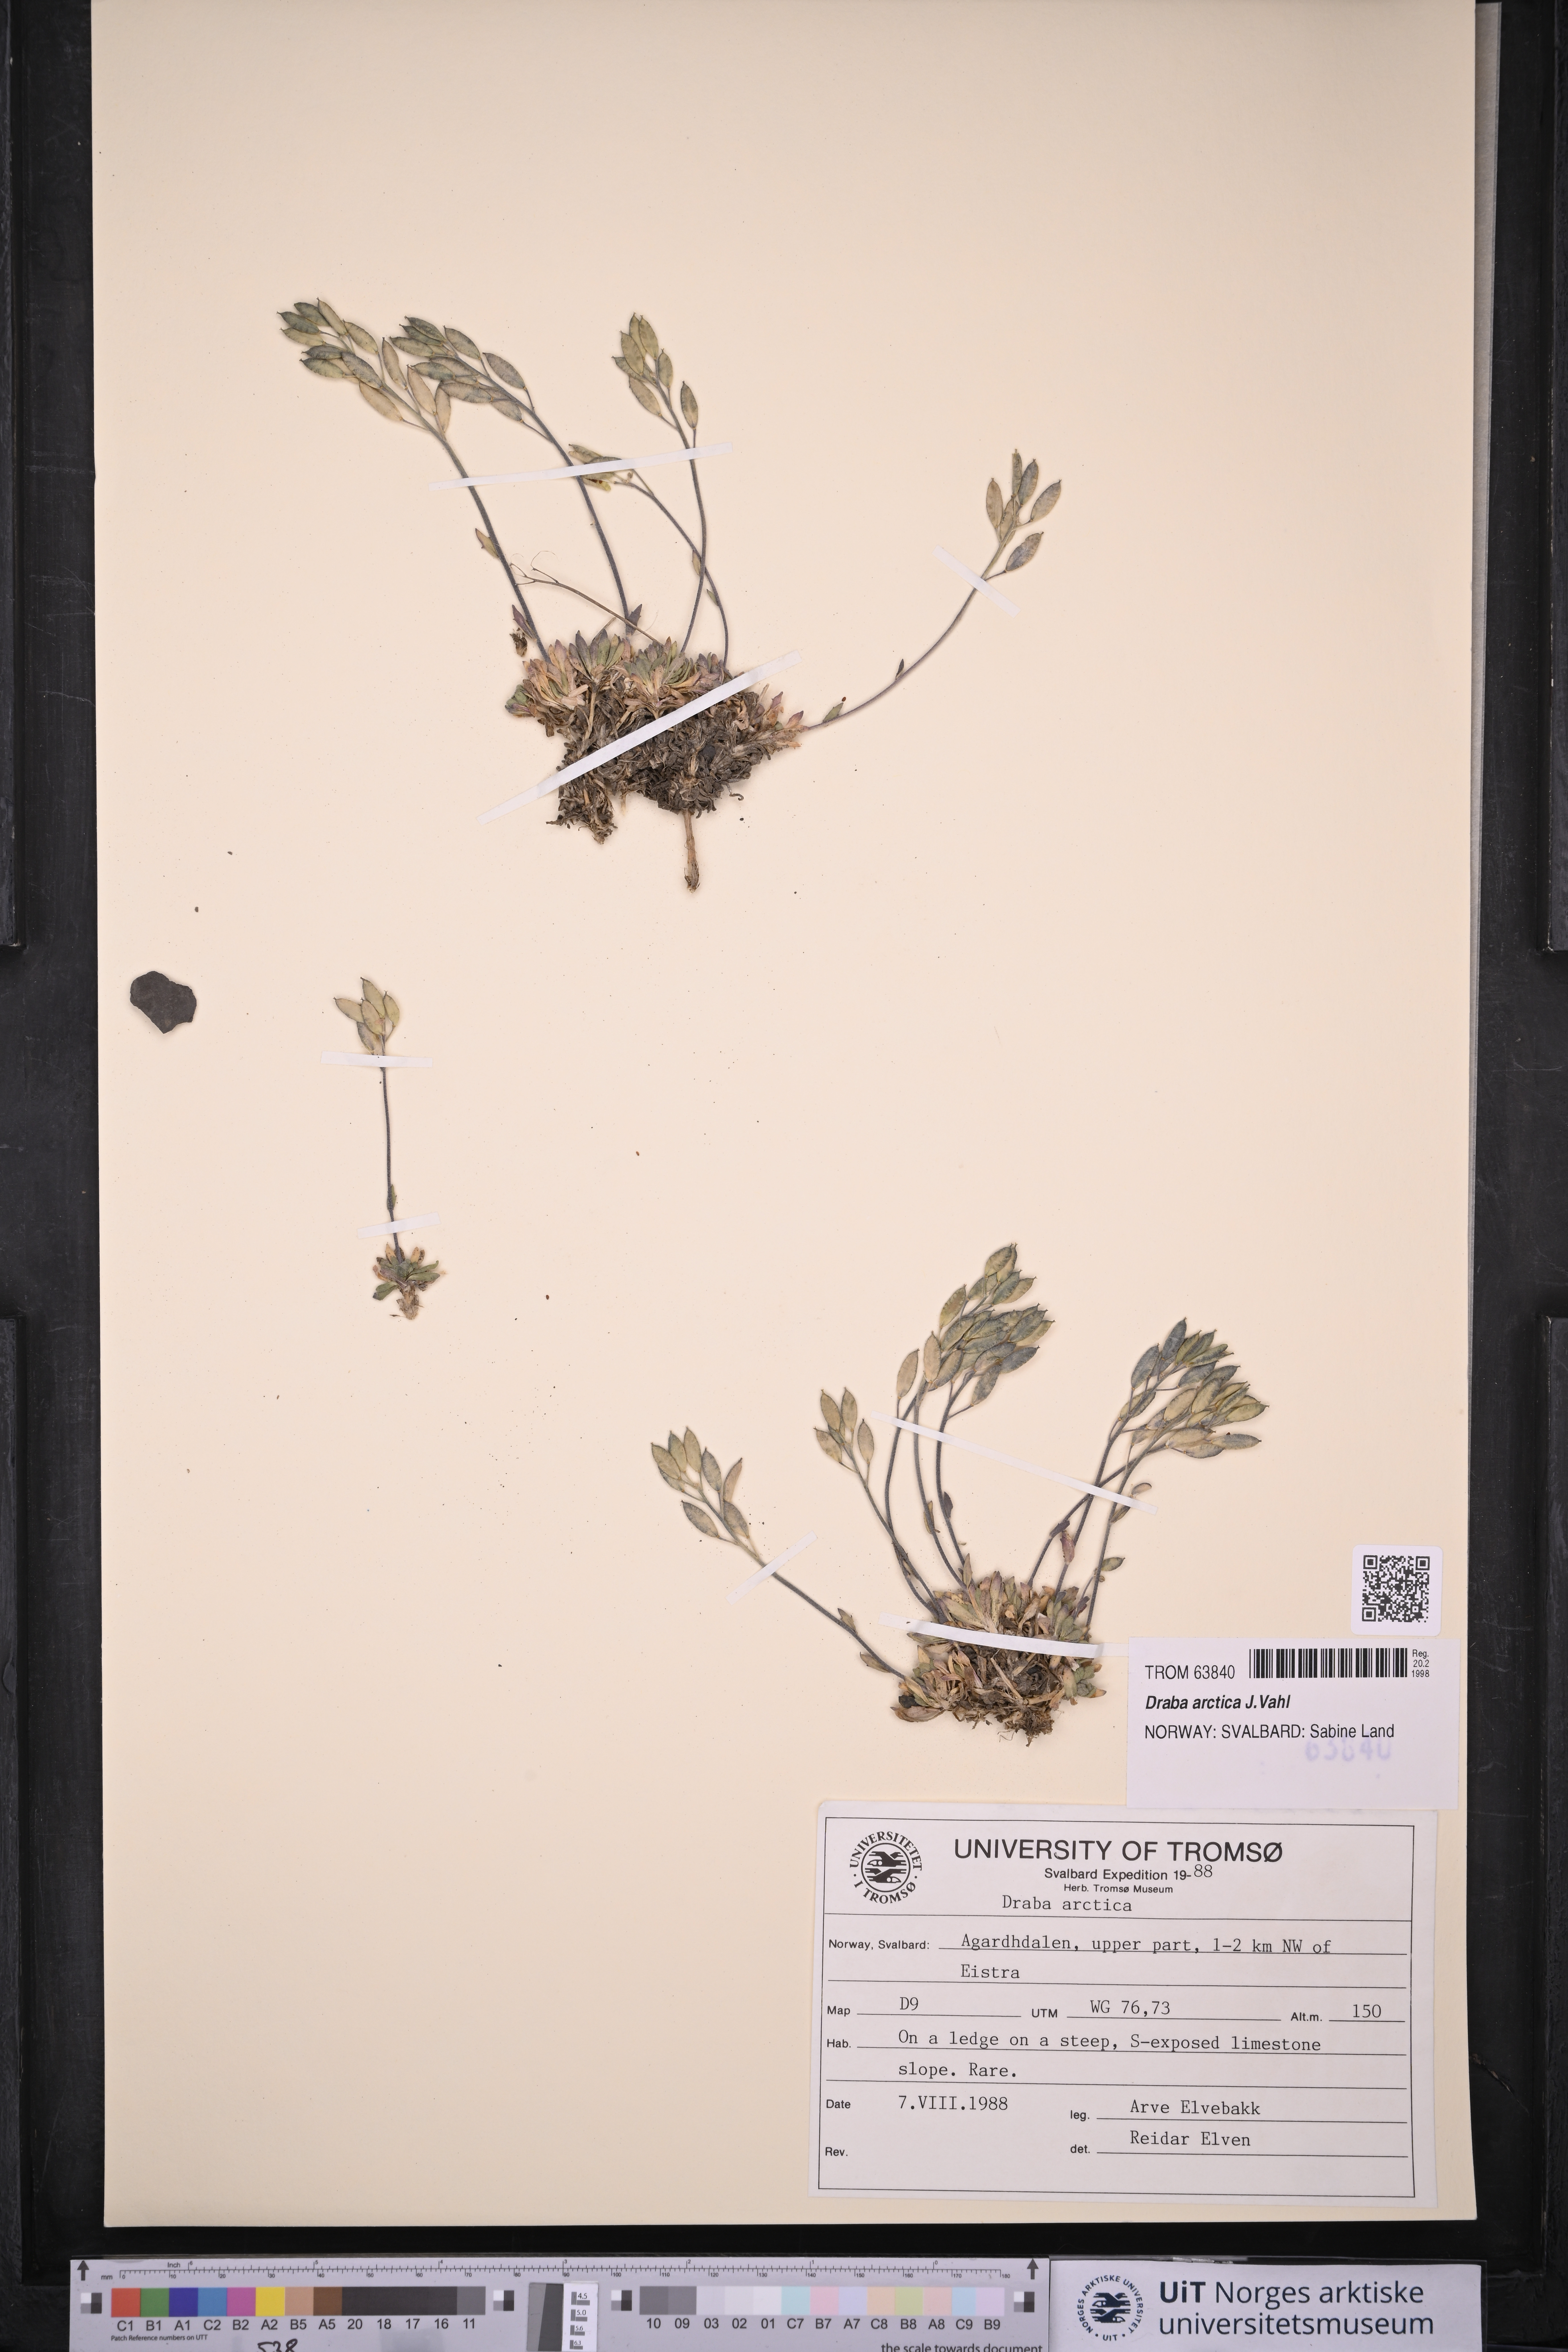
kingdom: Plantae
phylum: Tracheophyta
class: Magnoliopsida
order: Brassicales
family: Brassicaceae
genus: Draba
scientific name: Draba arctica
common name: Arctic draba
